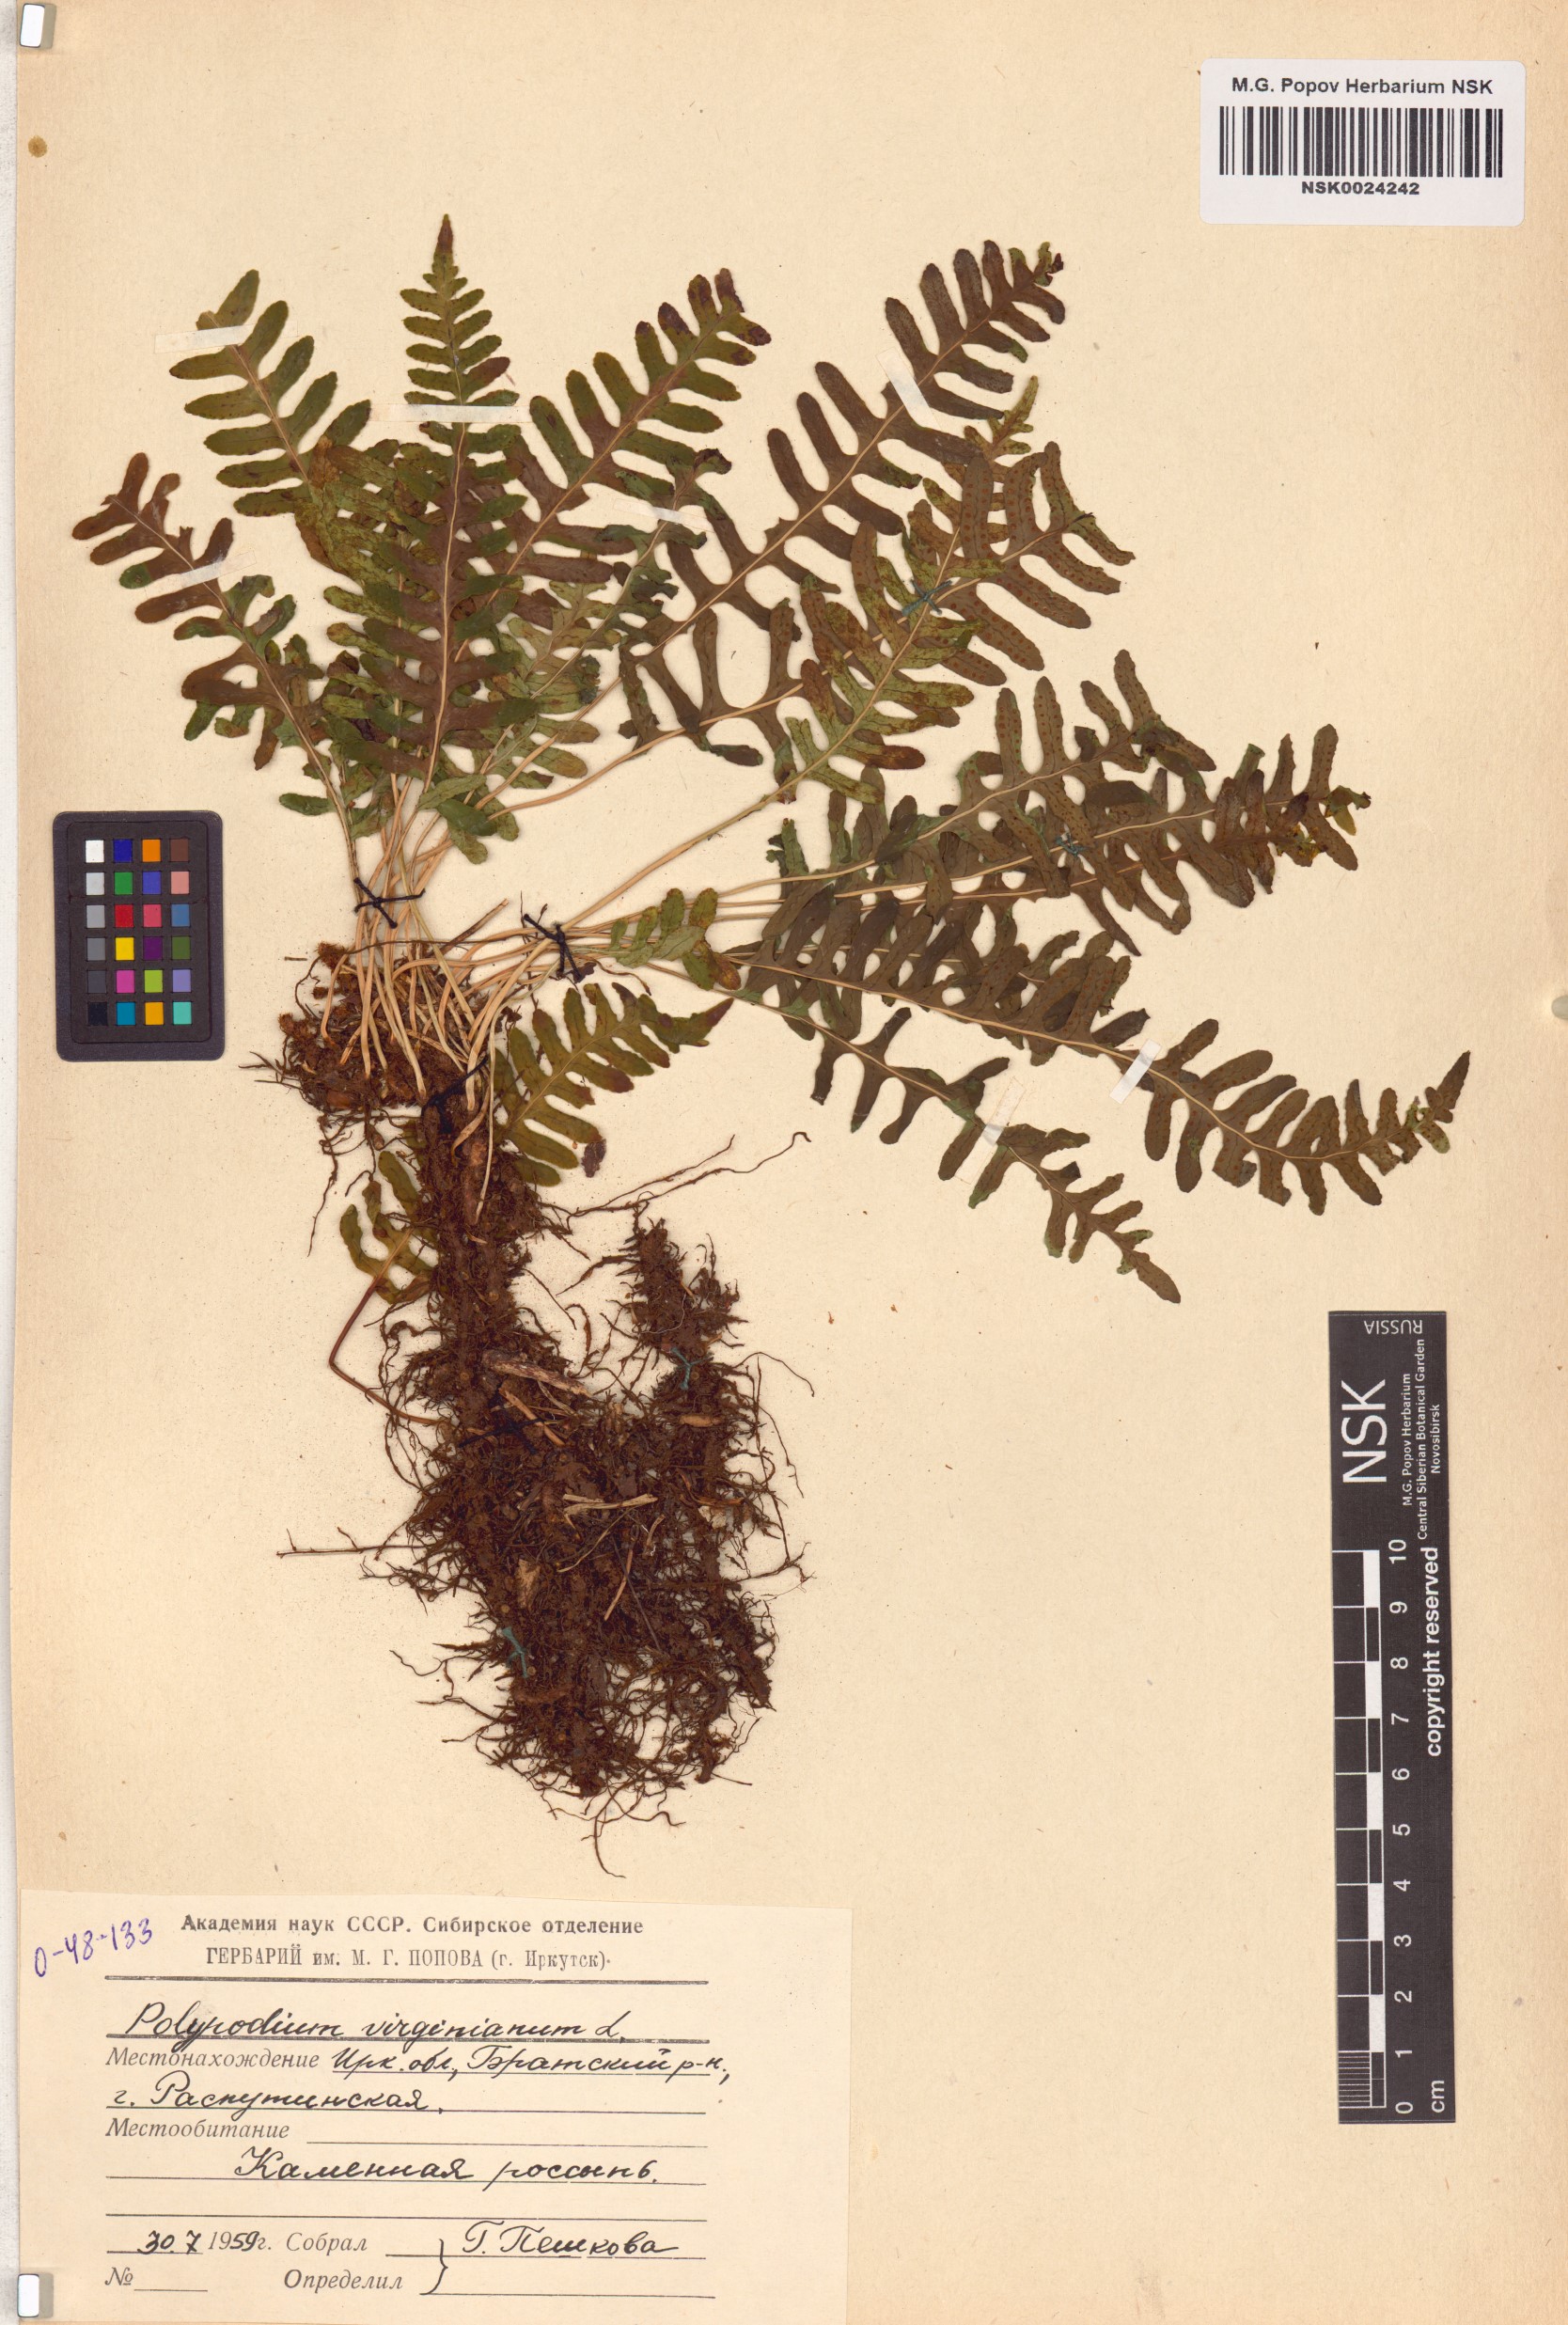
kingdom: Plantae
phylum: Tracheophyta
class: Polypodiopsida
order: Polypodiales
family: Polypodiaceae
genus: Polypodium
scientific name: Polypodium virginianum
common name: American wall fern
